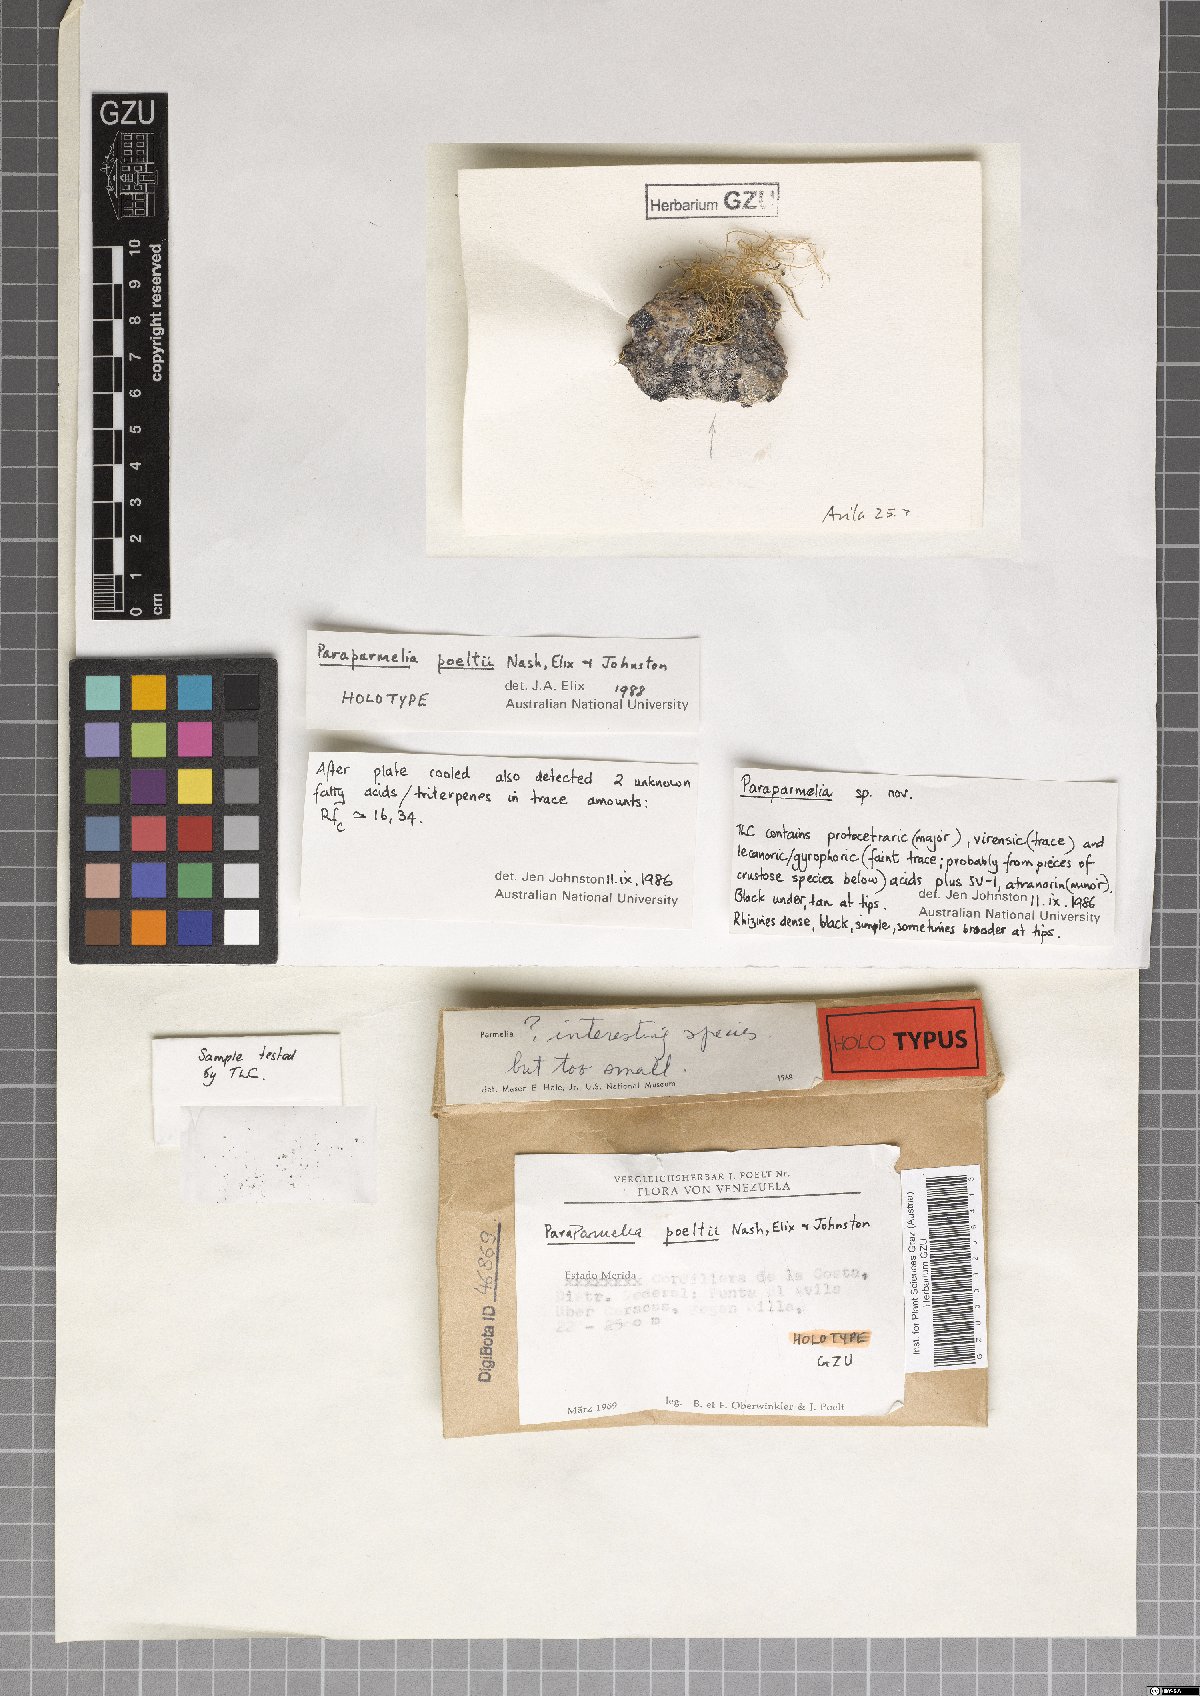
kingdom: Fungi
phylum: Ascomycota
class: Lecanoromycetes
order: Lecanorales
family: Parmeliaceae
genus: Xanthoparmelia
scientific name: Xanthoparmelia poeltii
